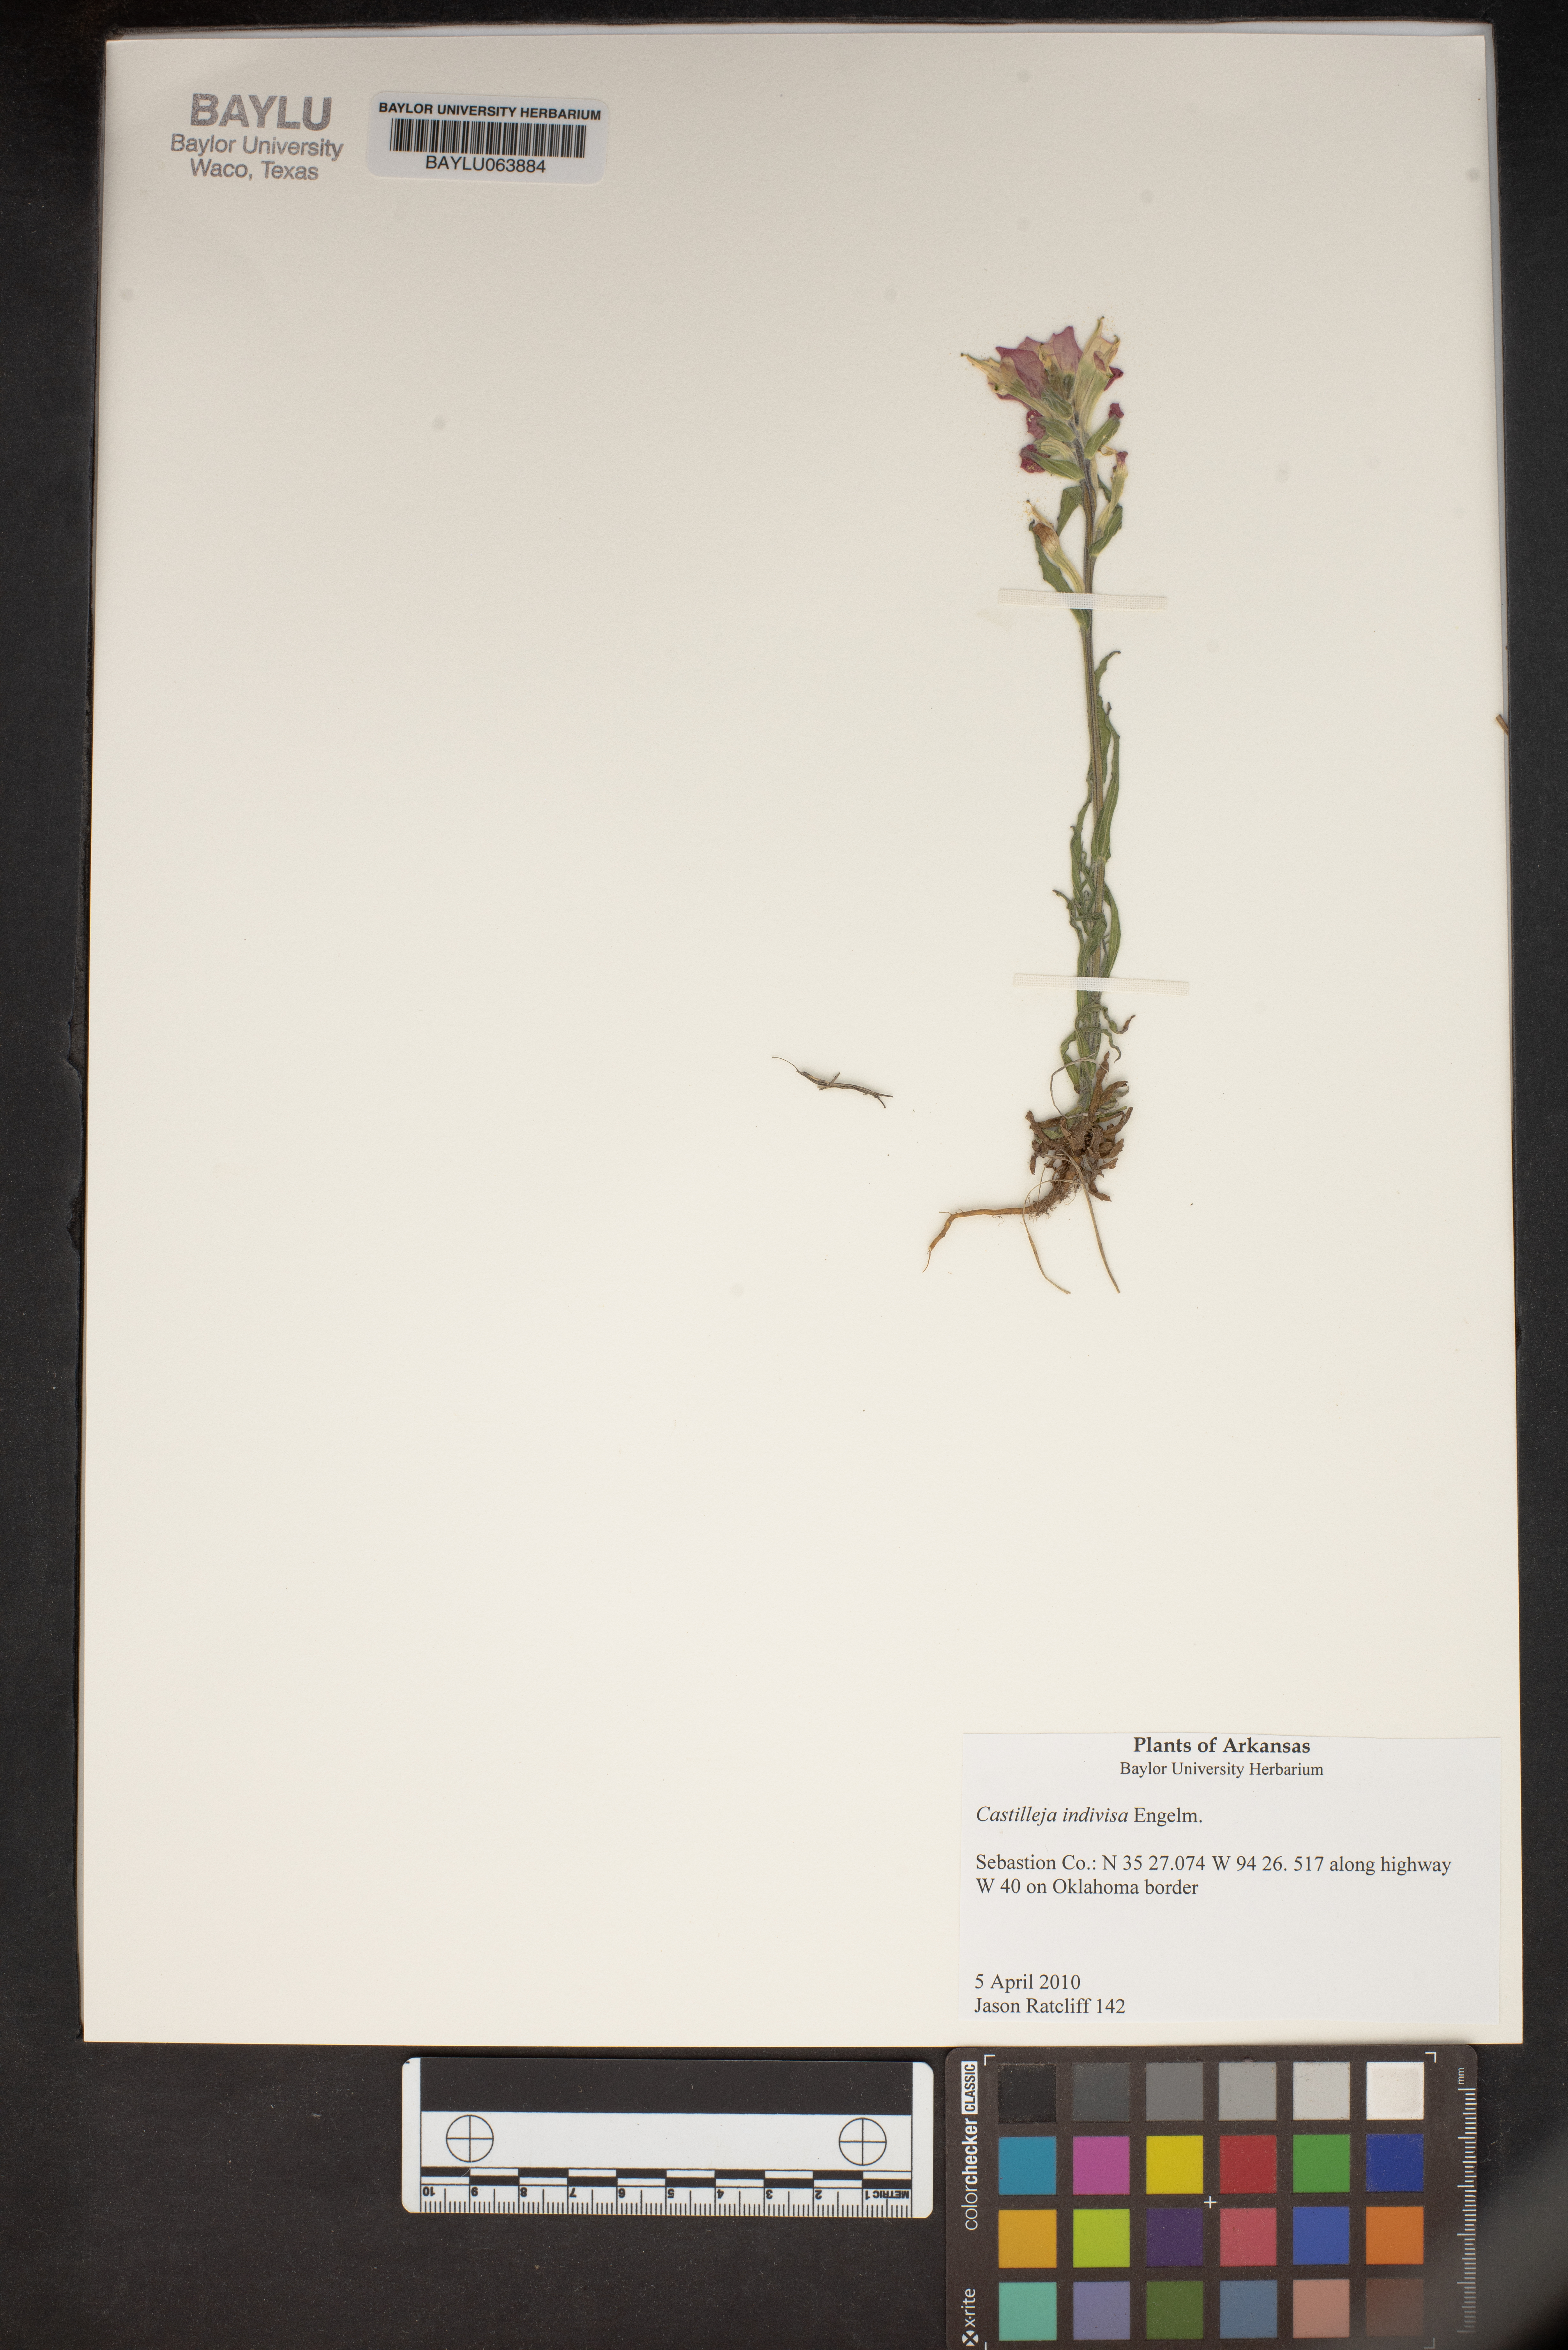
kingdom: Plantae
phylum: Tracheophyta
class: Magnoliopsida
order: Lamiales
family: Orobanchaceae
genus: Castilleja
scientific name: Castilleja indivisa
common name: Texas paintbrush
